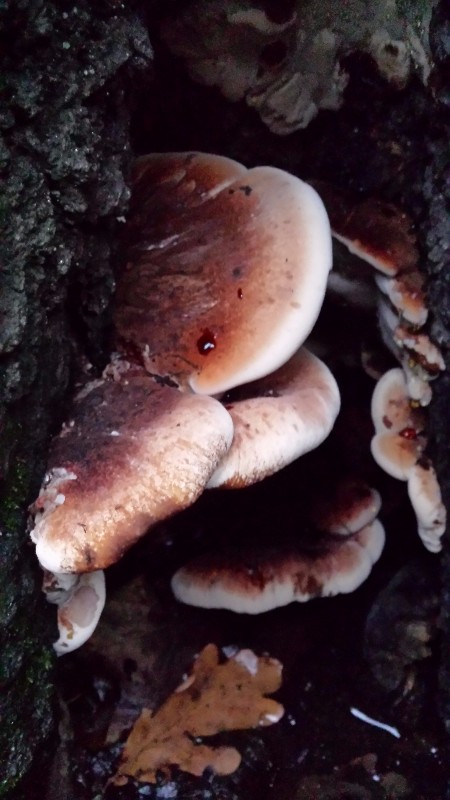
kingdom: Fungi
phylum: Basidiomycota
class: Agaricomycetes
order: Polyporales
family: Ischnodermataceae
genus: Ischnoderma
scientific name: Ischnoderma benzoinum
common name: gran-tjæreporesvamp
